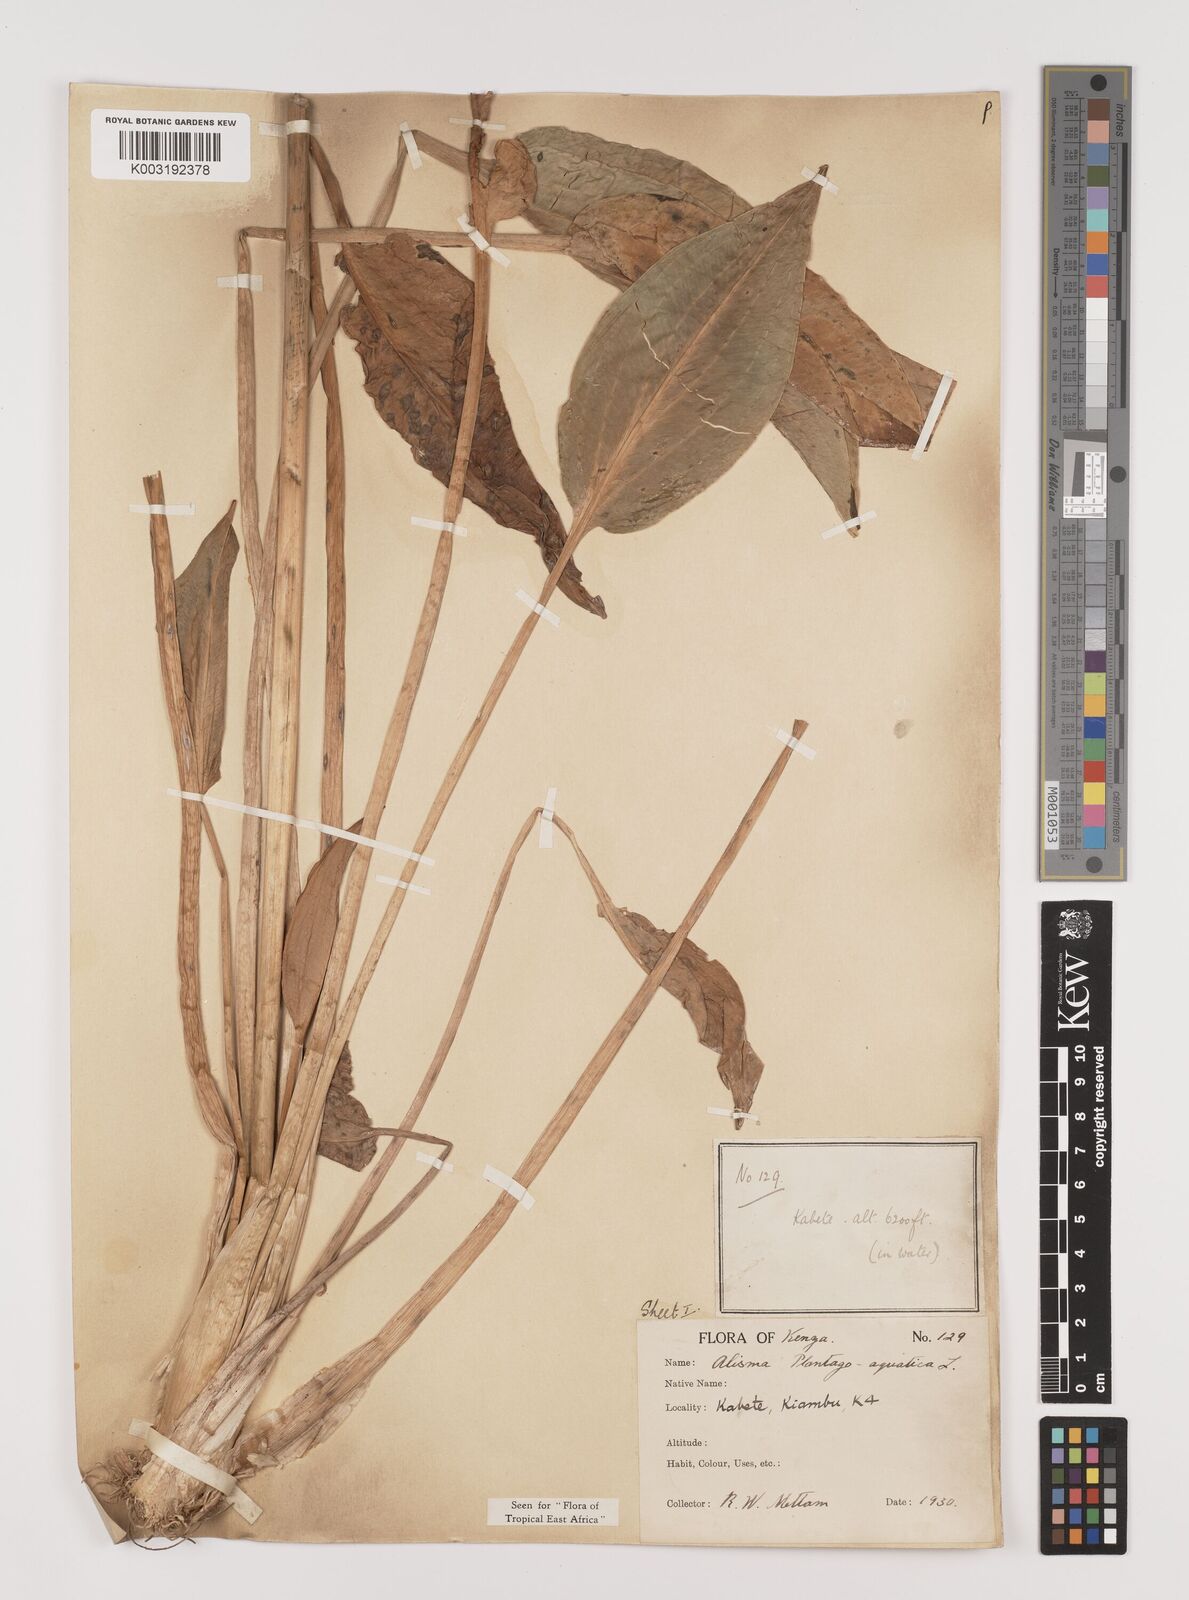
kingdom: Plantae
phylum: Tracheophyta
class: Liliopsida
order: Alismatales
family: Alismataceae
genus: Alisma
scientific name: Alisma plantago-aquatica
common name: Water-plantain
